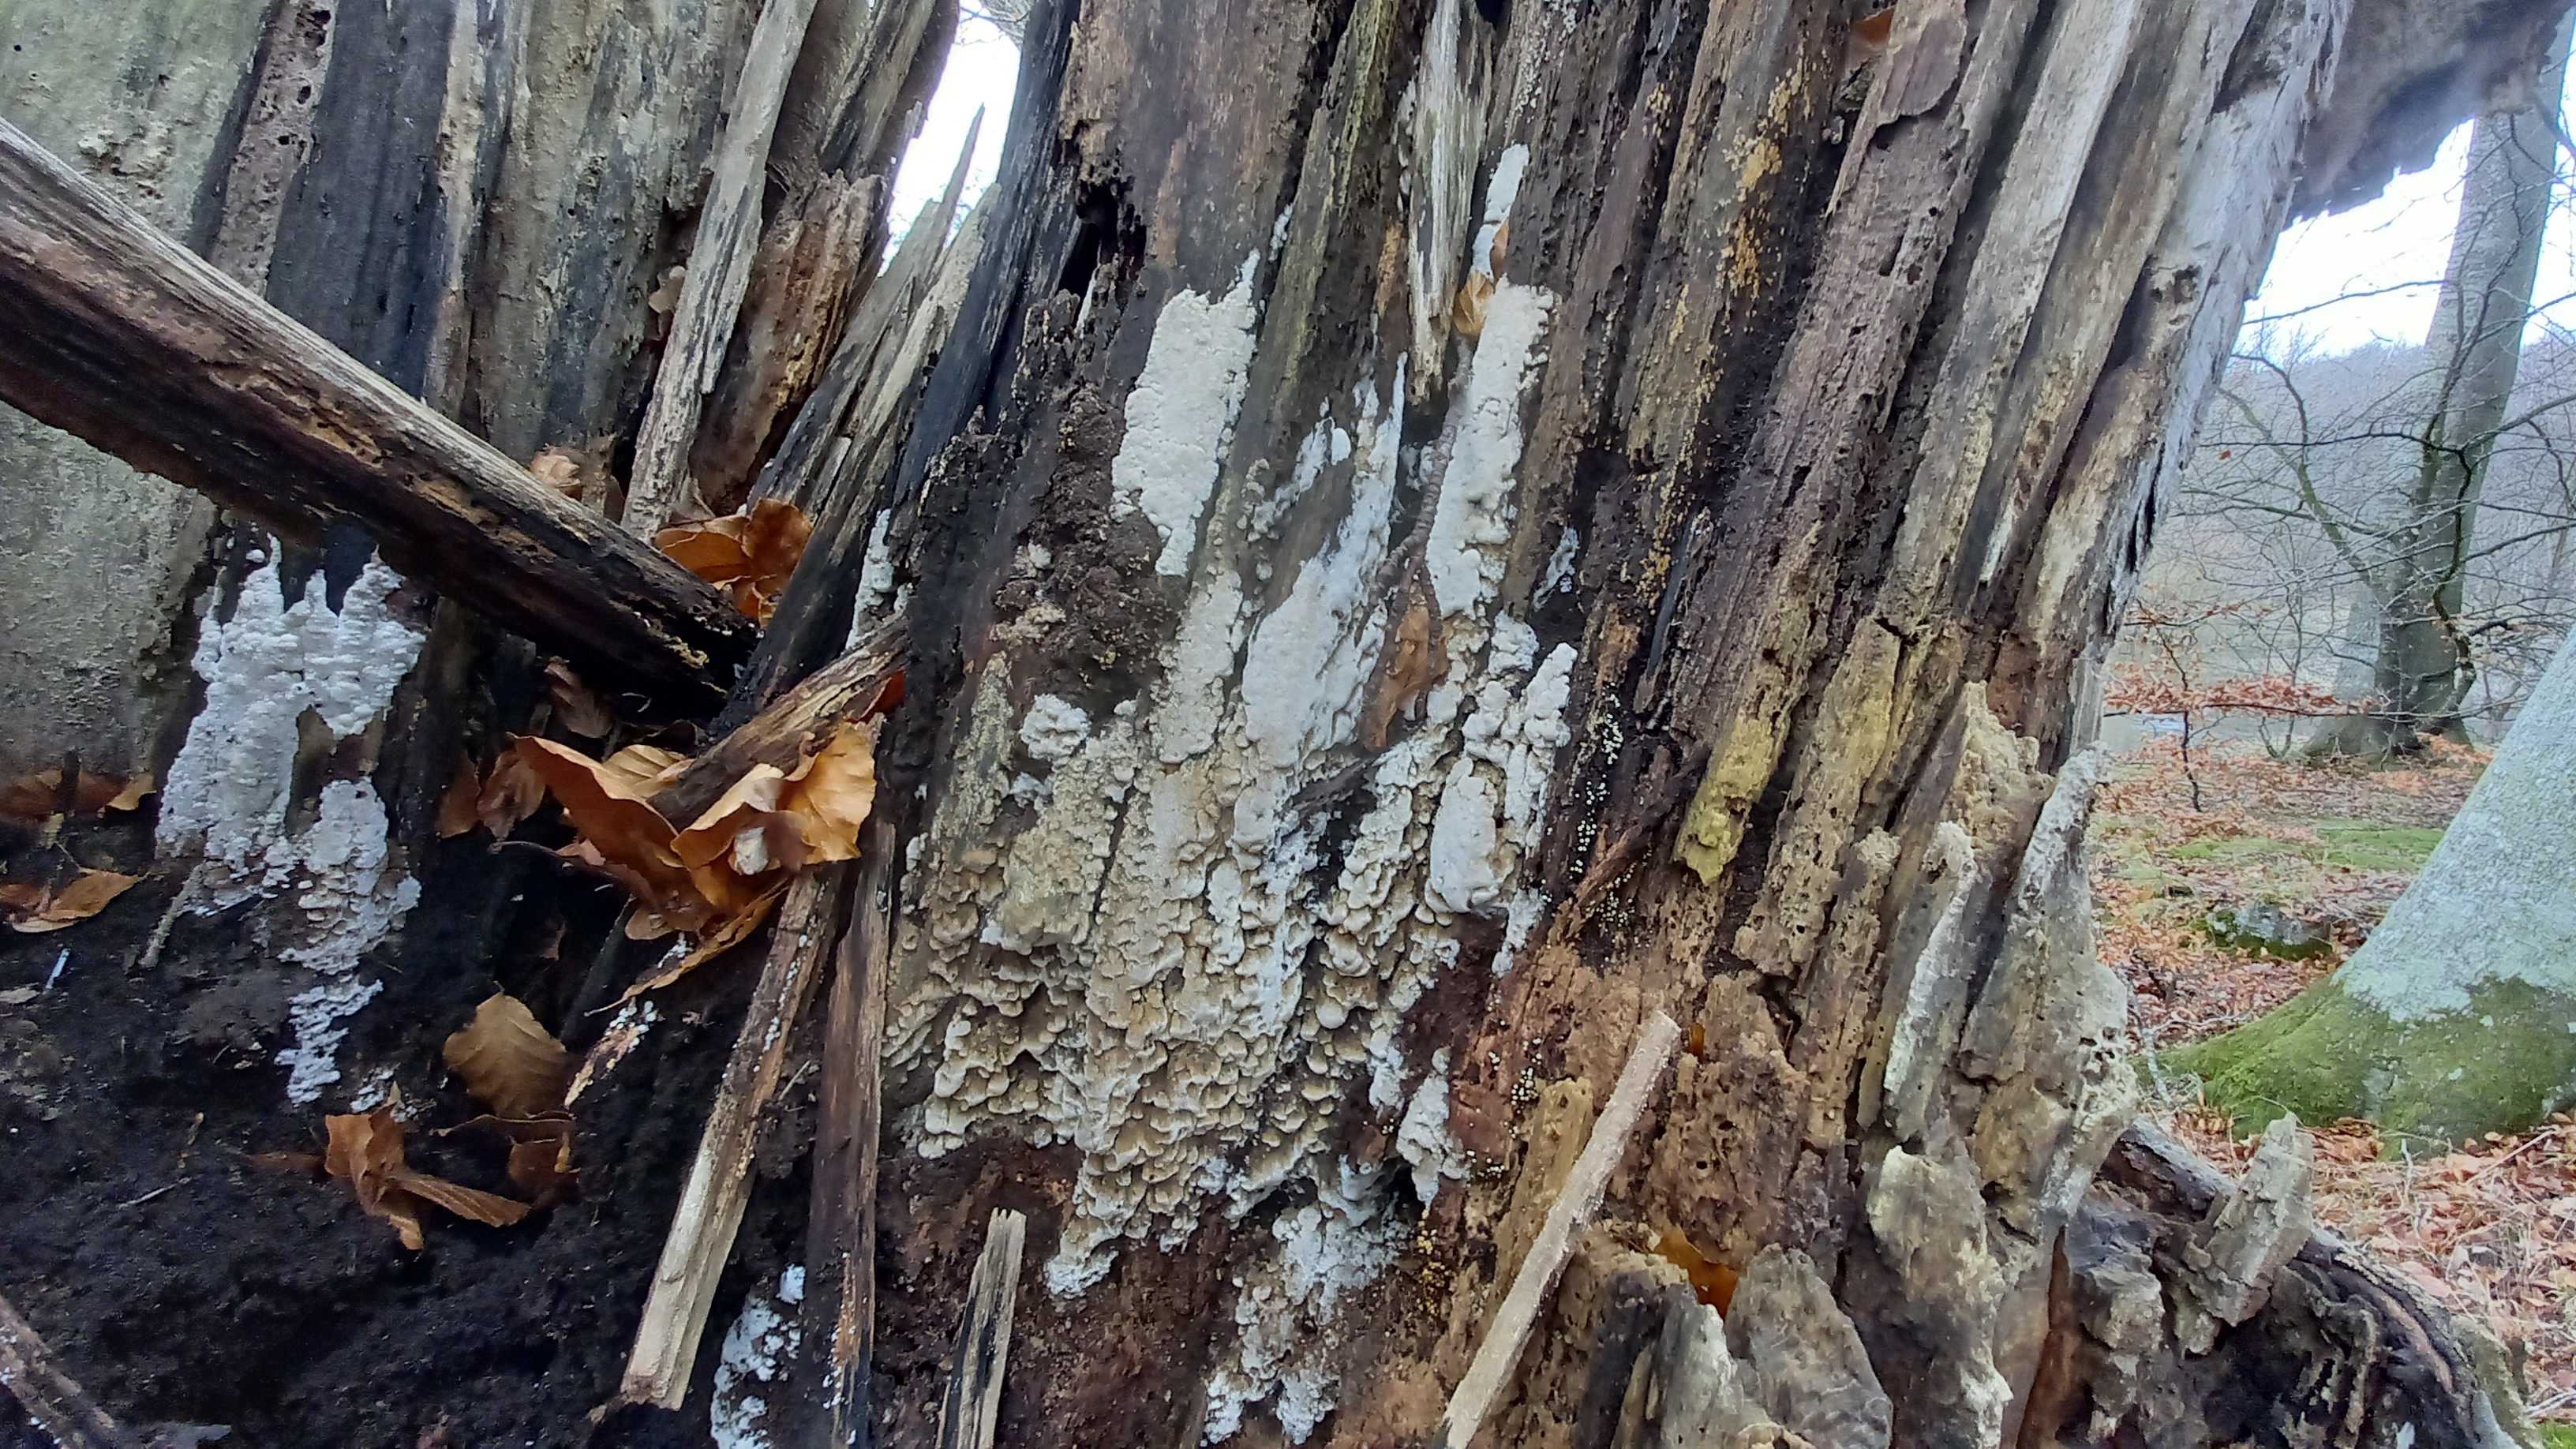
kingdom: Fungi
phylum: Basidiomycota
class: Agaricomycetes
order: Polyporales
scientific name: Polyporales
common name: poresvampordenen
